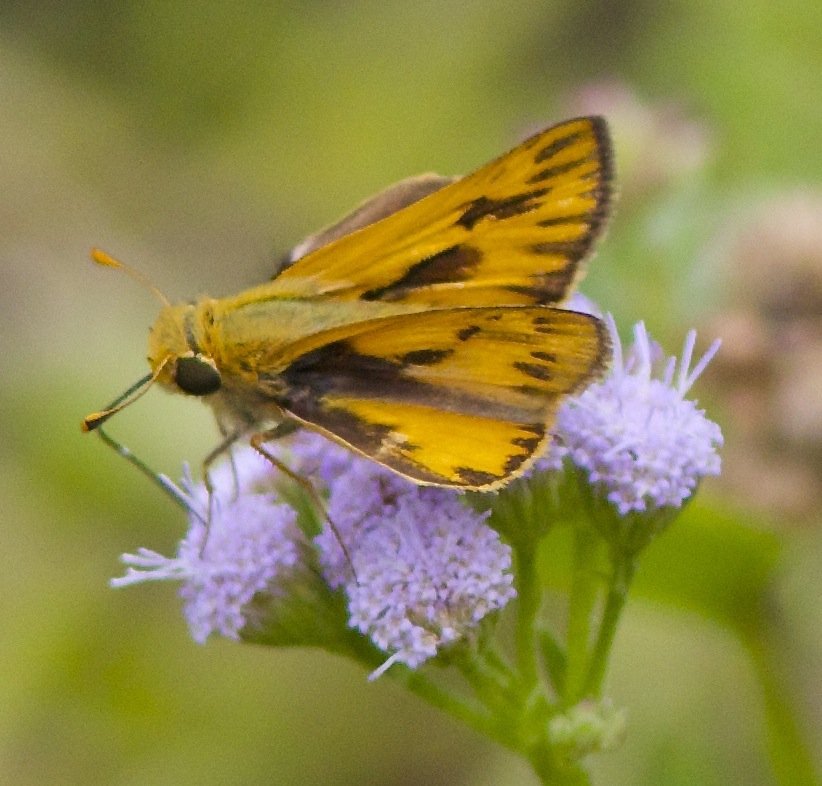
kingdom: Animalia
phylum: Arthropoda
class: Insecta
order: Lepidoptera
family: Hesperiidae
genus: Hylephila
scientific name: Hylephila phyleus
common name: Fiery Skipper
